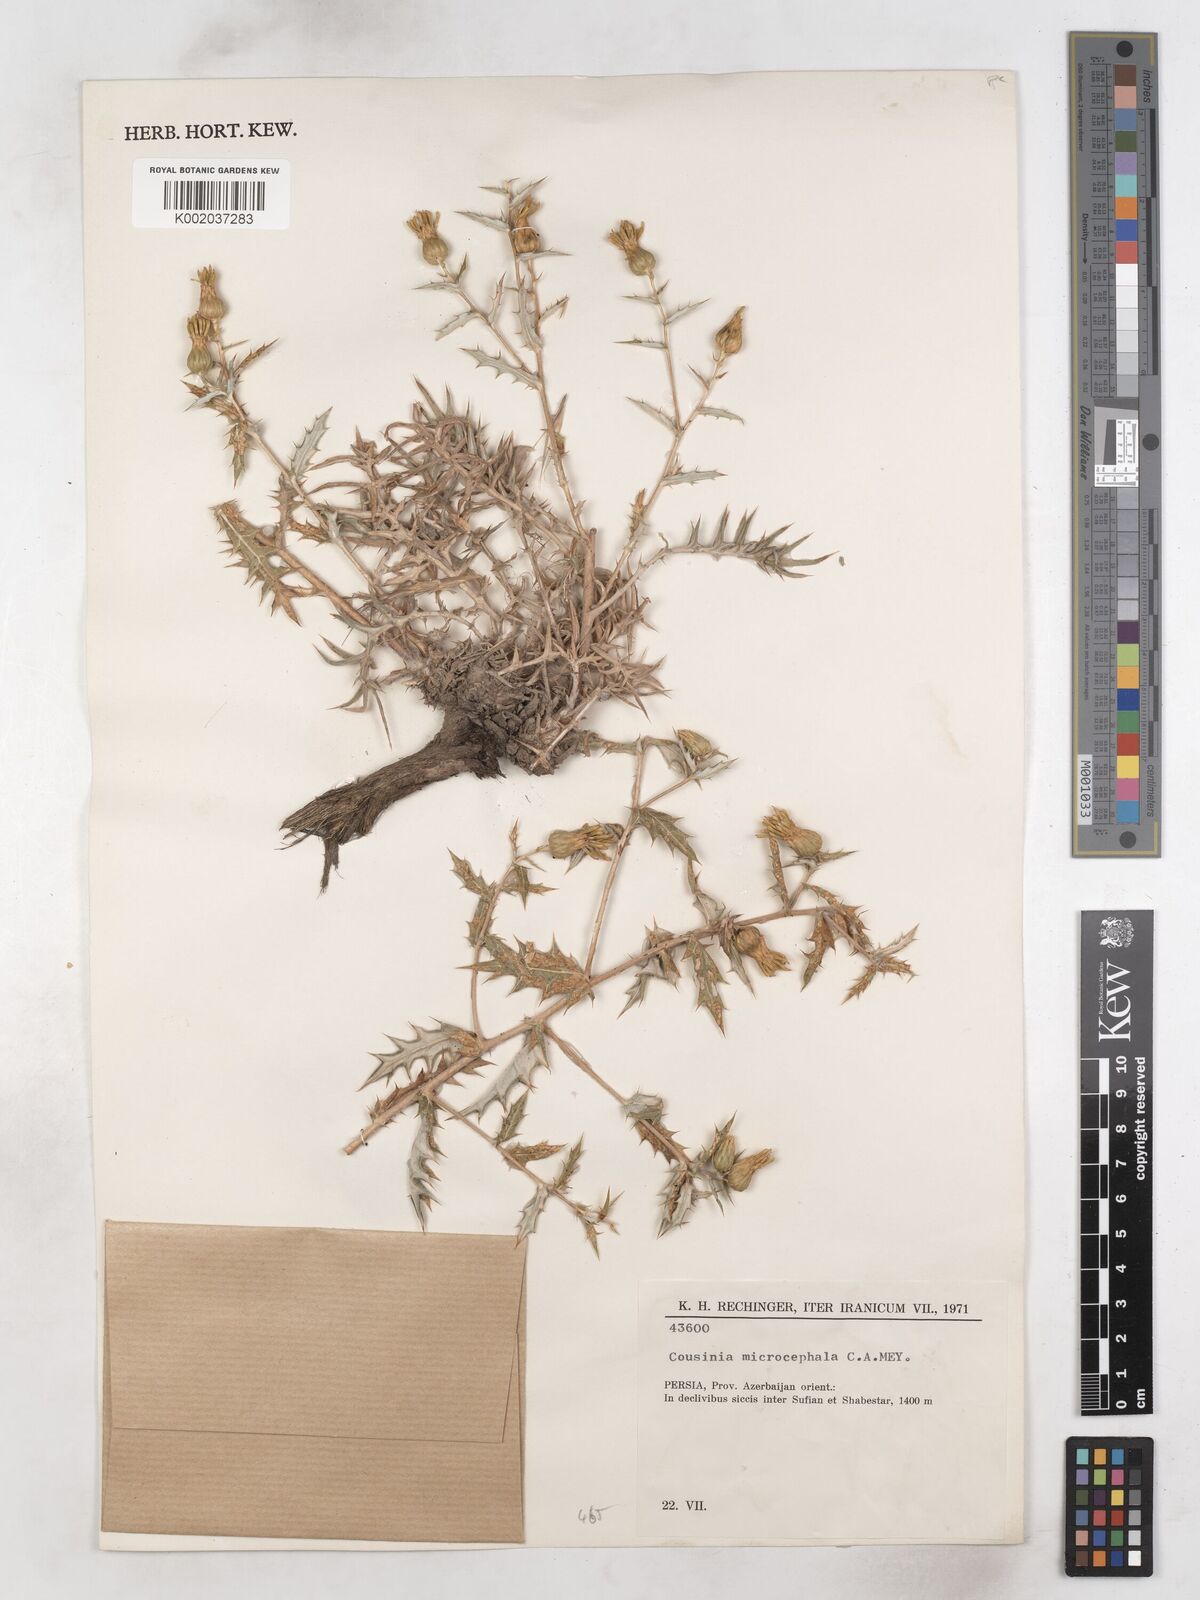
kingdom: Plantae
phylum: Tracheophyta
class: Magnoliopsida
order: Asterales
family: Asteraceae
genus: Cousinia
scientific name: Cousinia microcephala
